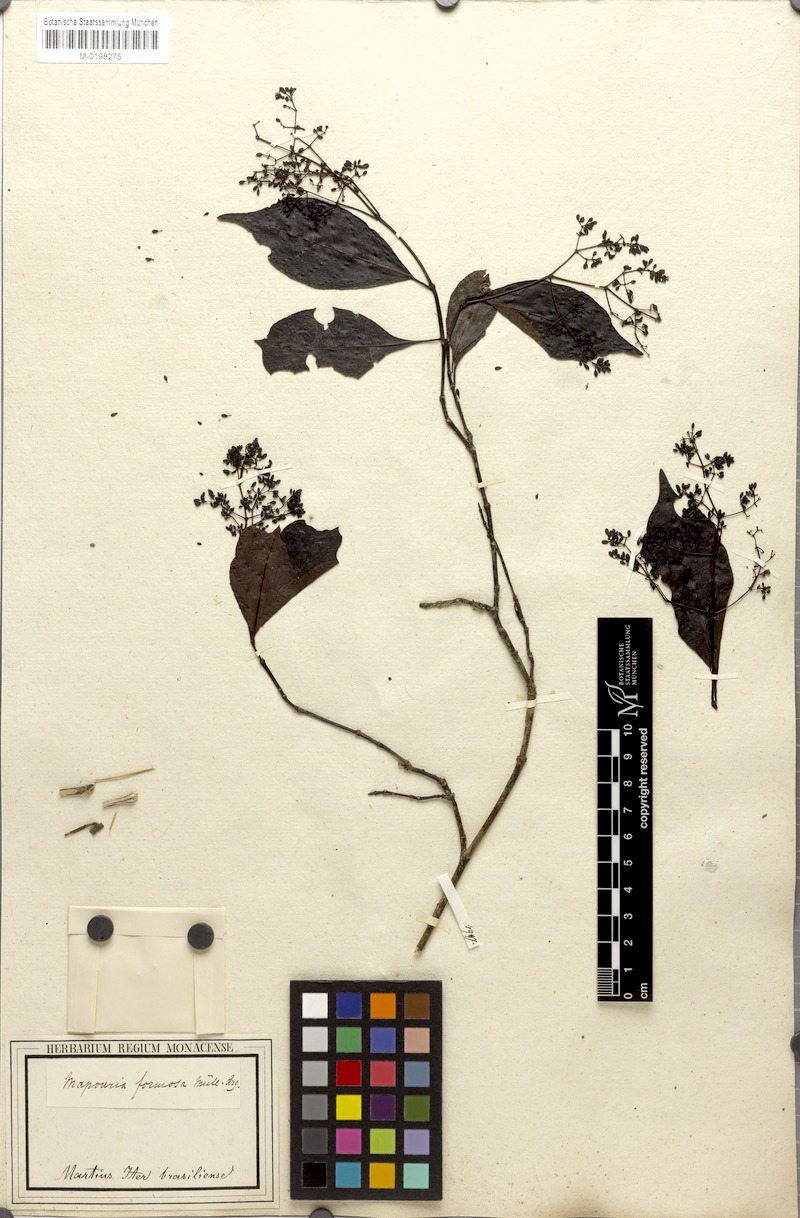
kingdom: Plantae
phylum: Tracheophyta
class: Magnoliopsida
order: Gentianales
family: Rubiaceae
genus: Psychotria
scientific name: Psychotria formosa
